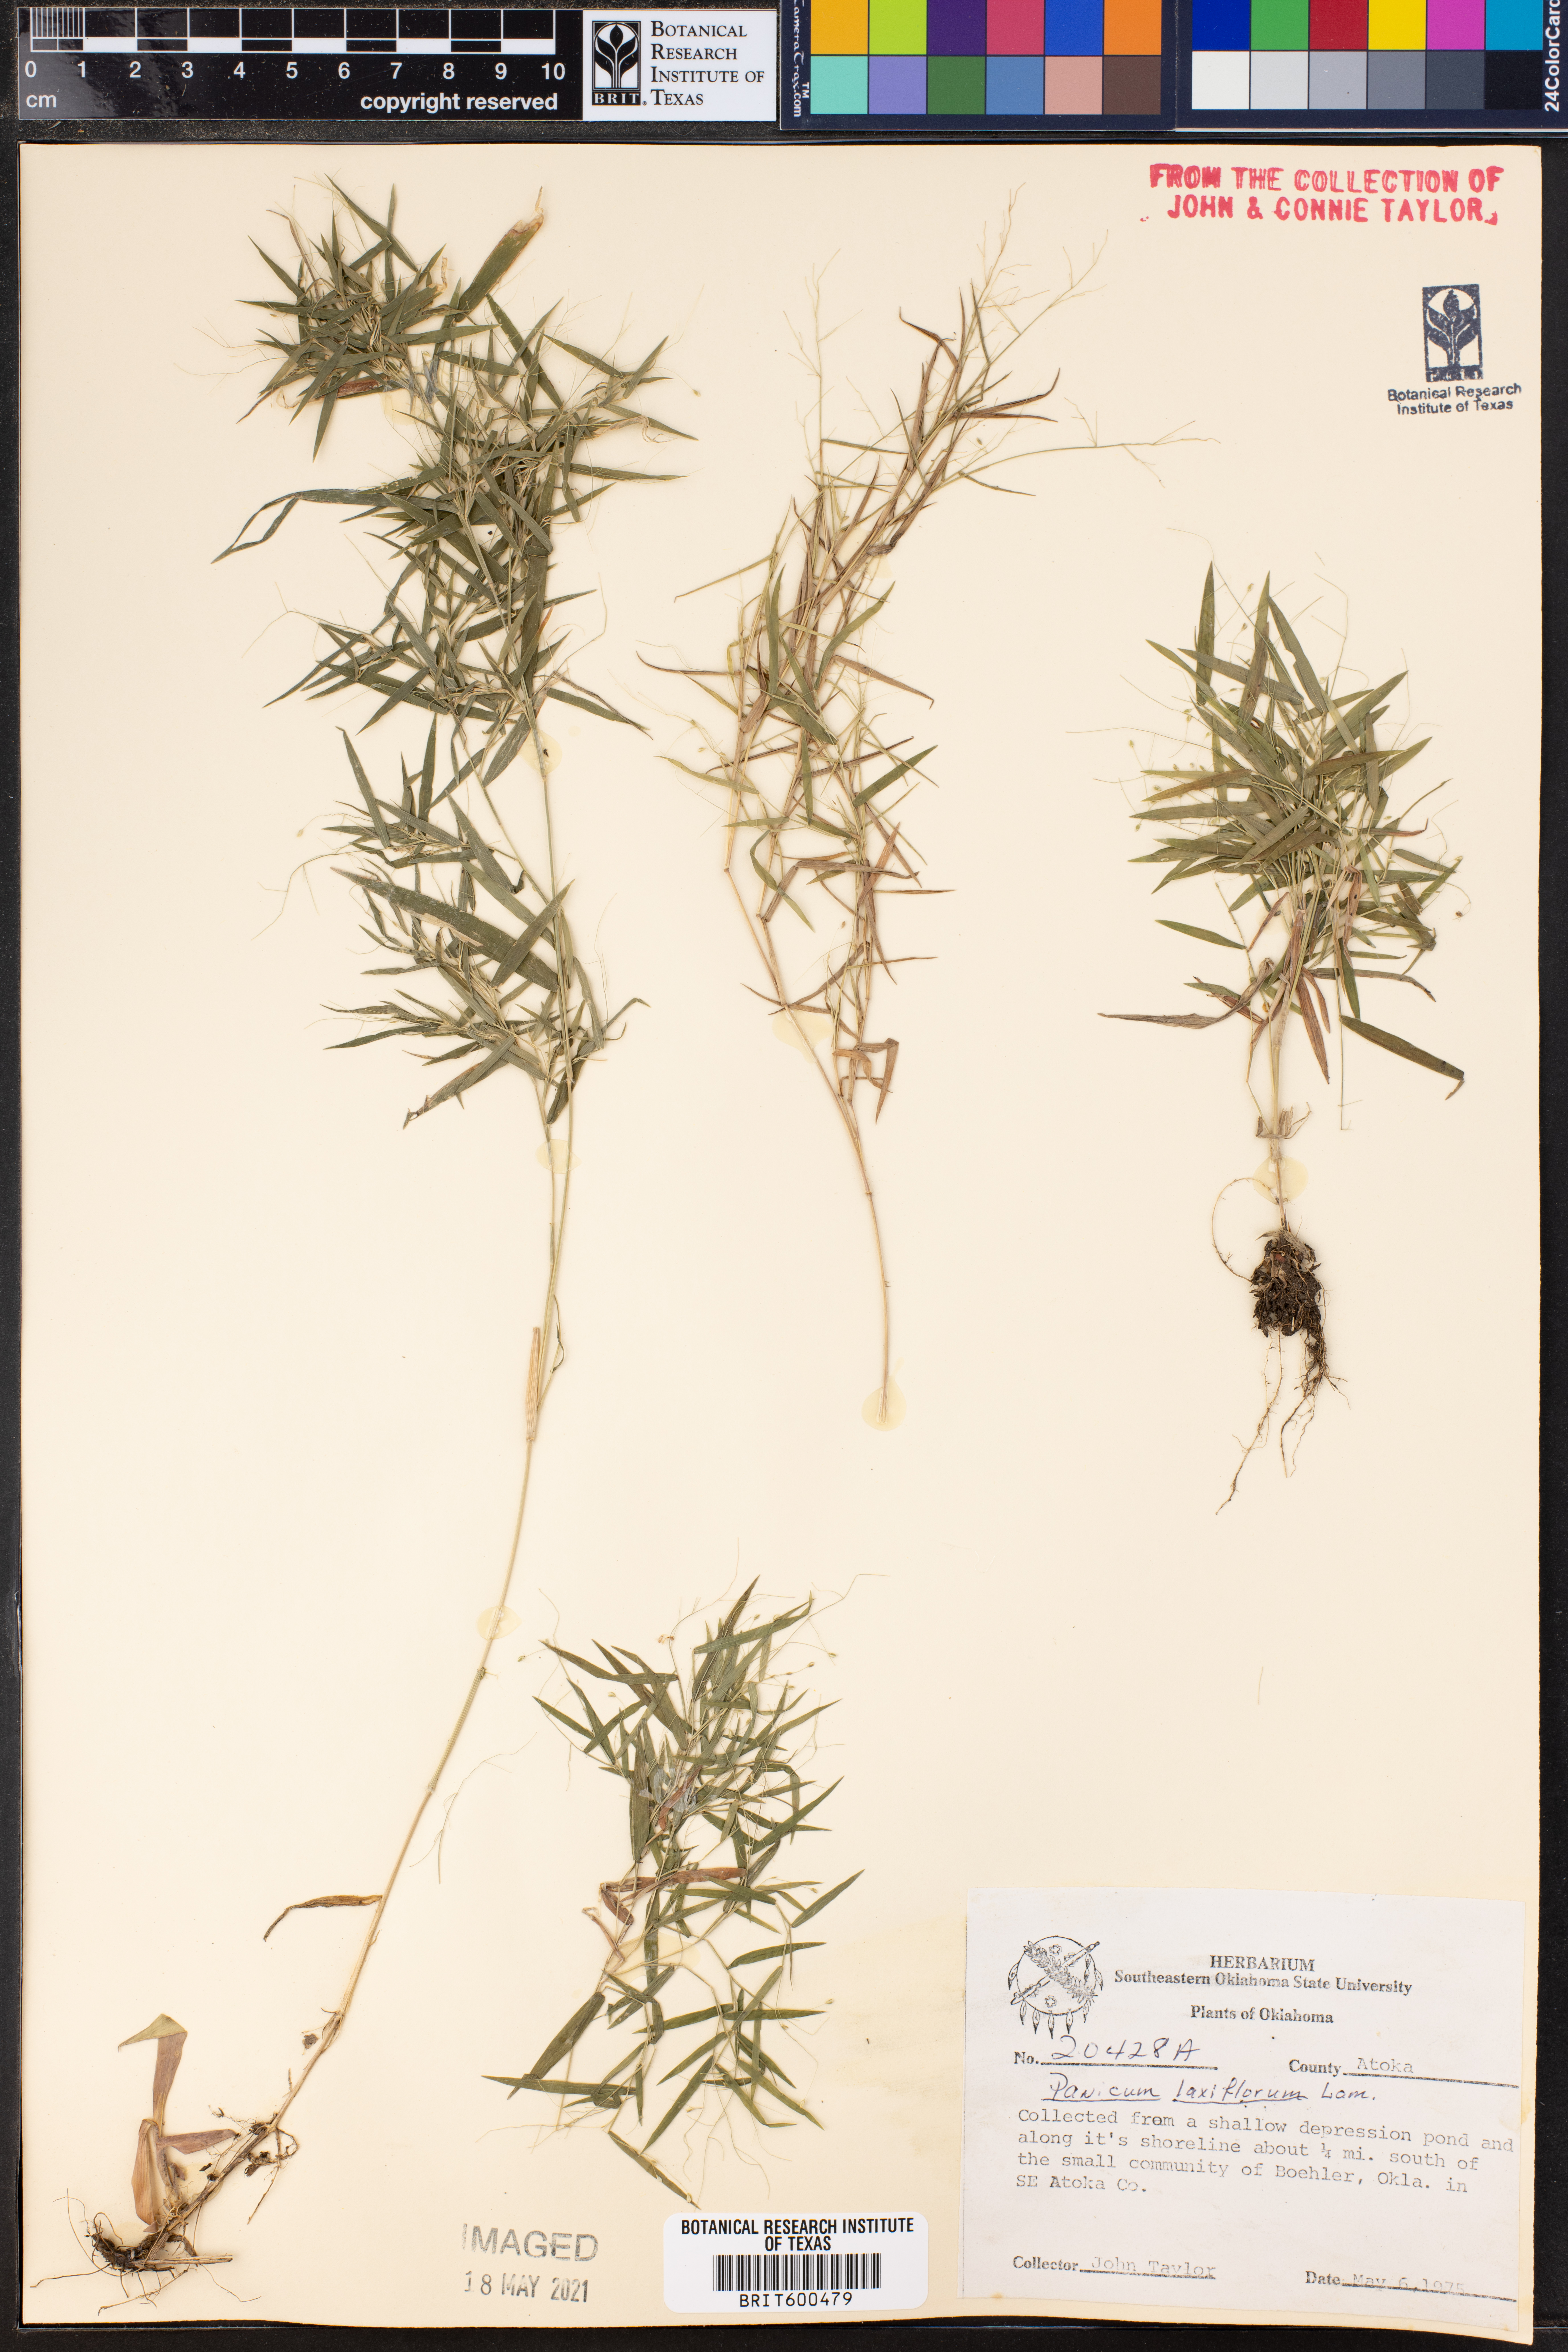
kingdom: Plantae
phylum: Tracheophyta
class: Liliopsida
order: Poales
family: Poaceae
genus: Dichanthelium
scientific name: Dichanthelium laxiflorum
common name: Soft-tuft panic grass
